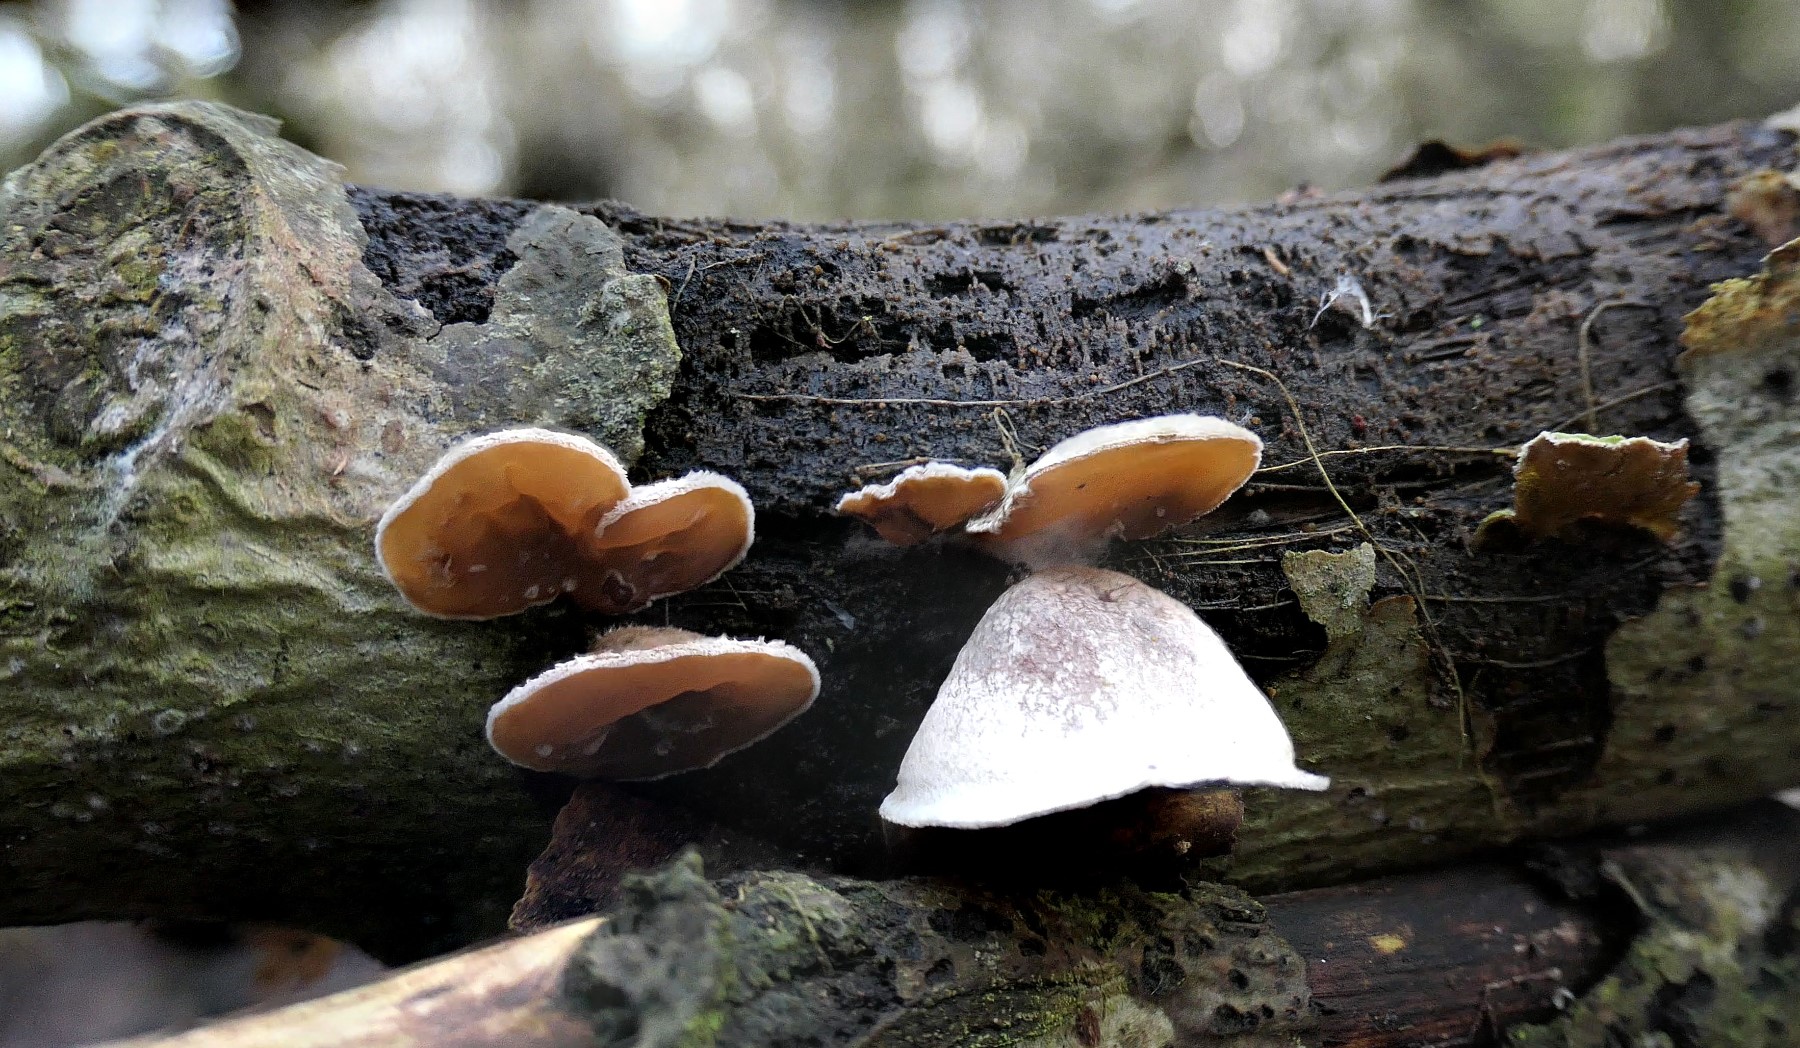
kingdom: Fungi
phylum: Basidiomycota
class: Agaricomycetes
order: Agaricales
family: Schizophyllaceae
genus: Schizophyllum
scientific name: Schizophyllum amplum
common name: poppel-hængeøre
